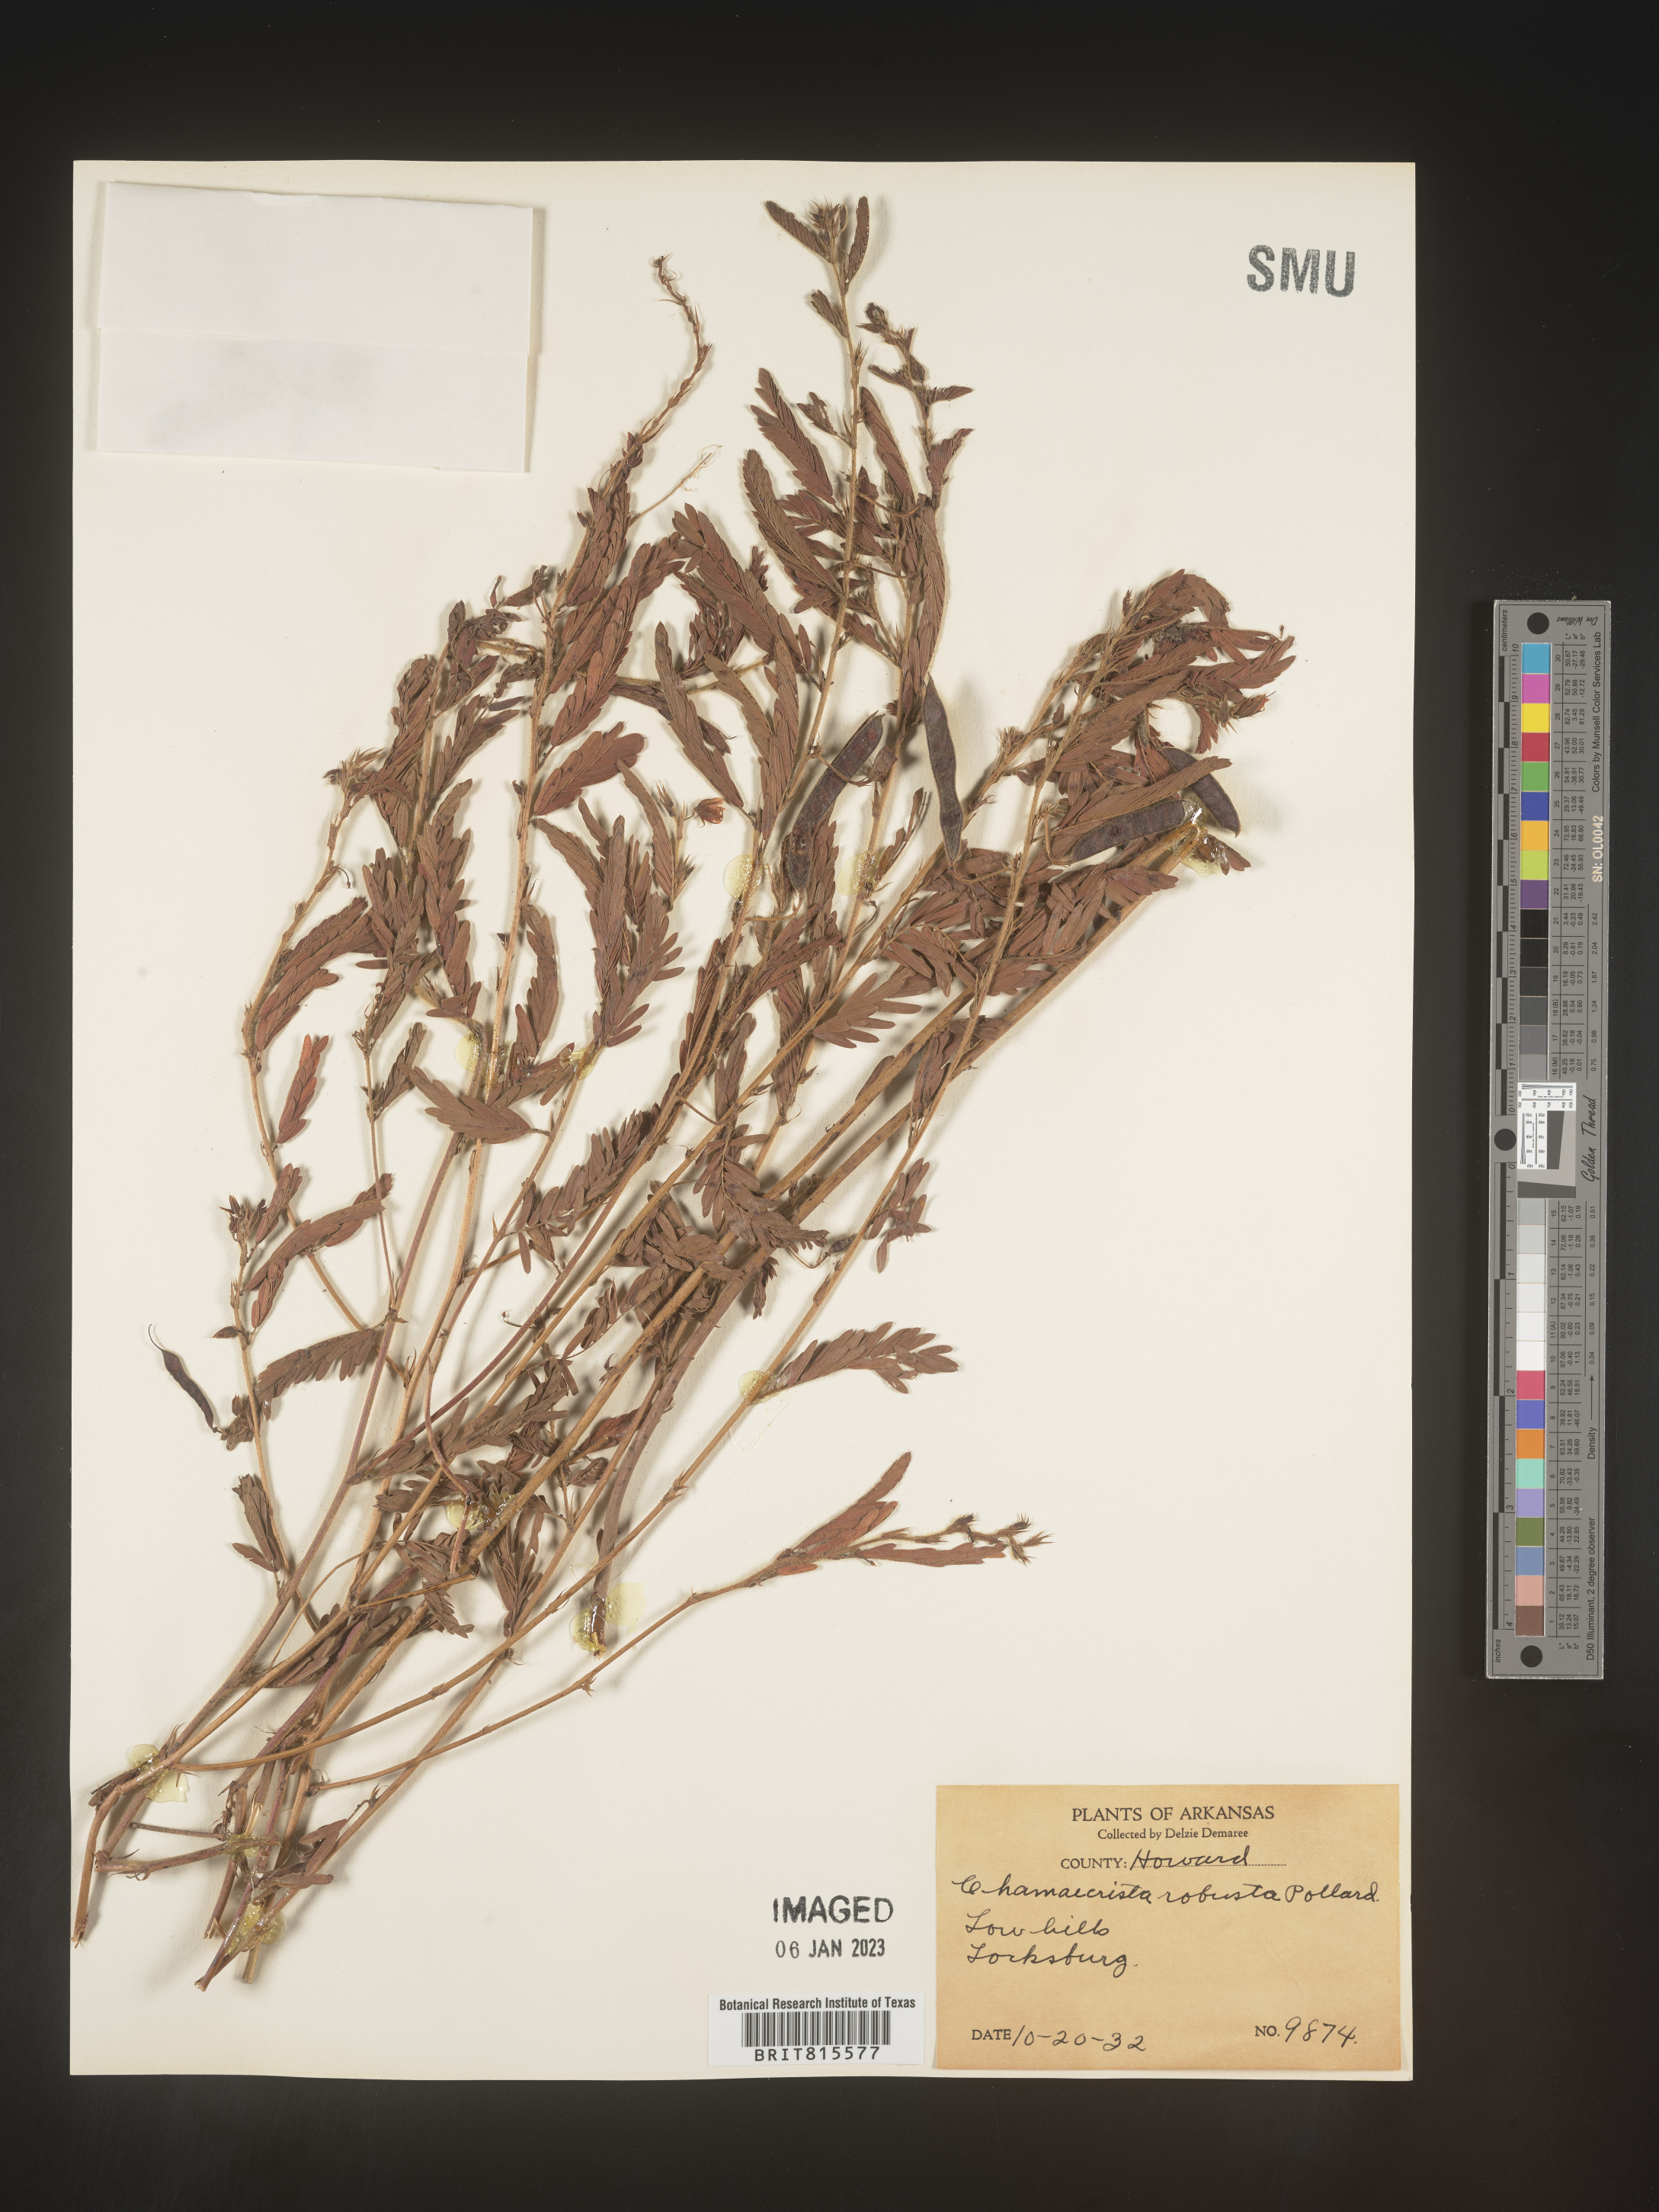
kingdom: Plantae
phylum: Tracheophyta
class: Magnoliopsida
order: Fabales
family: Fabaceae
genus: Cassia
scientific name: Cassia
